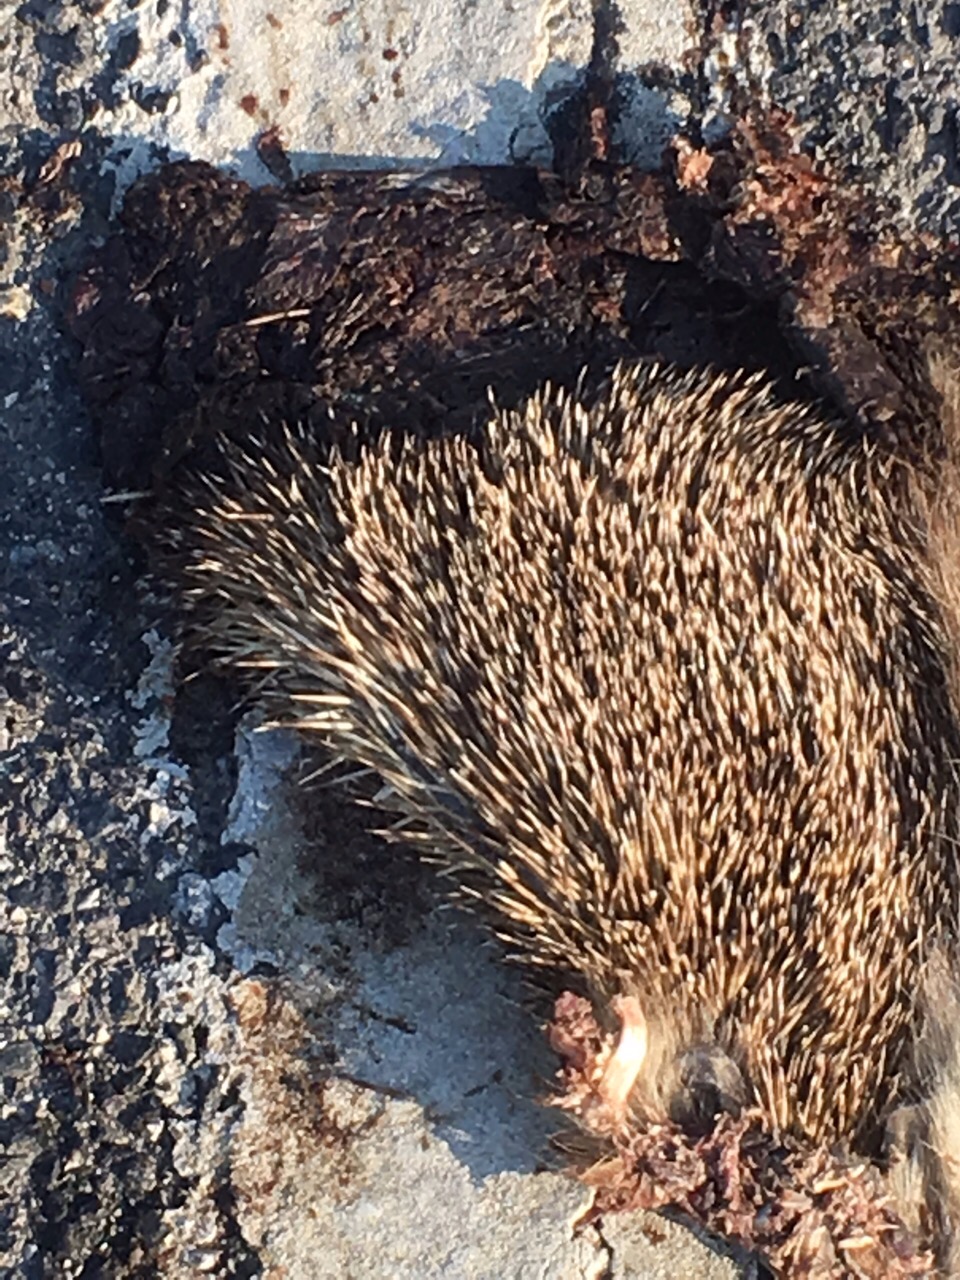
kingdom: Animalia
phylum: Chordata
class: Mammalia
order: Erinaceomorpha
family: Erinaceidae
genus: Erinaceus
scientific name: Erinaceus
